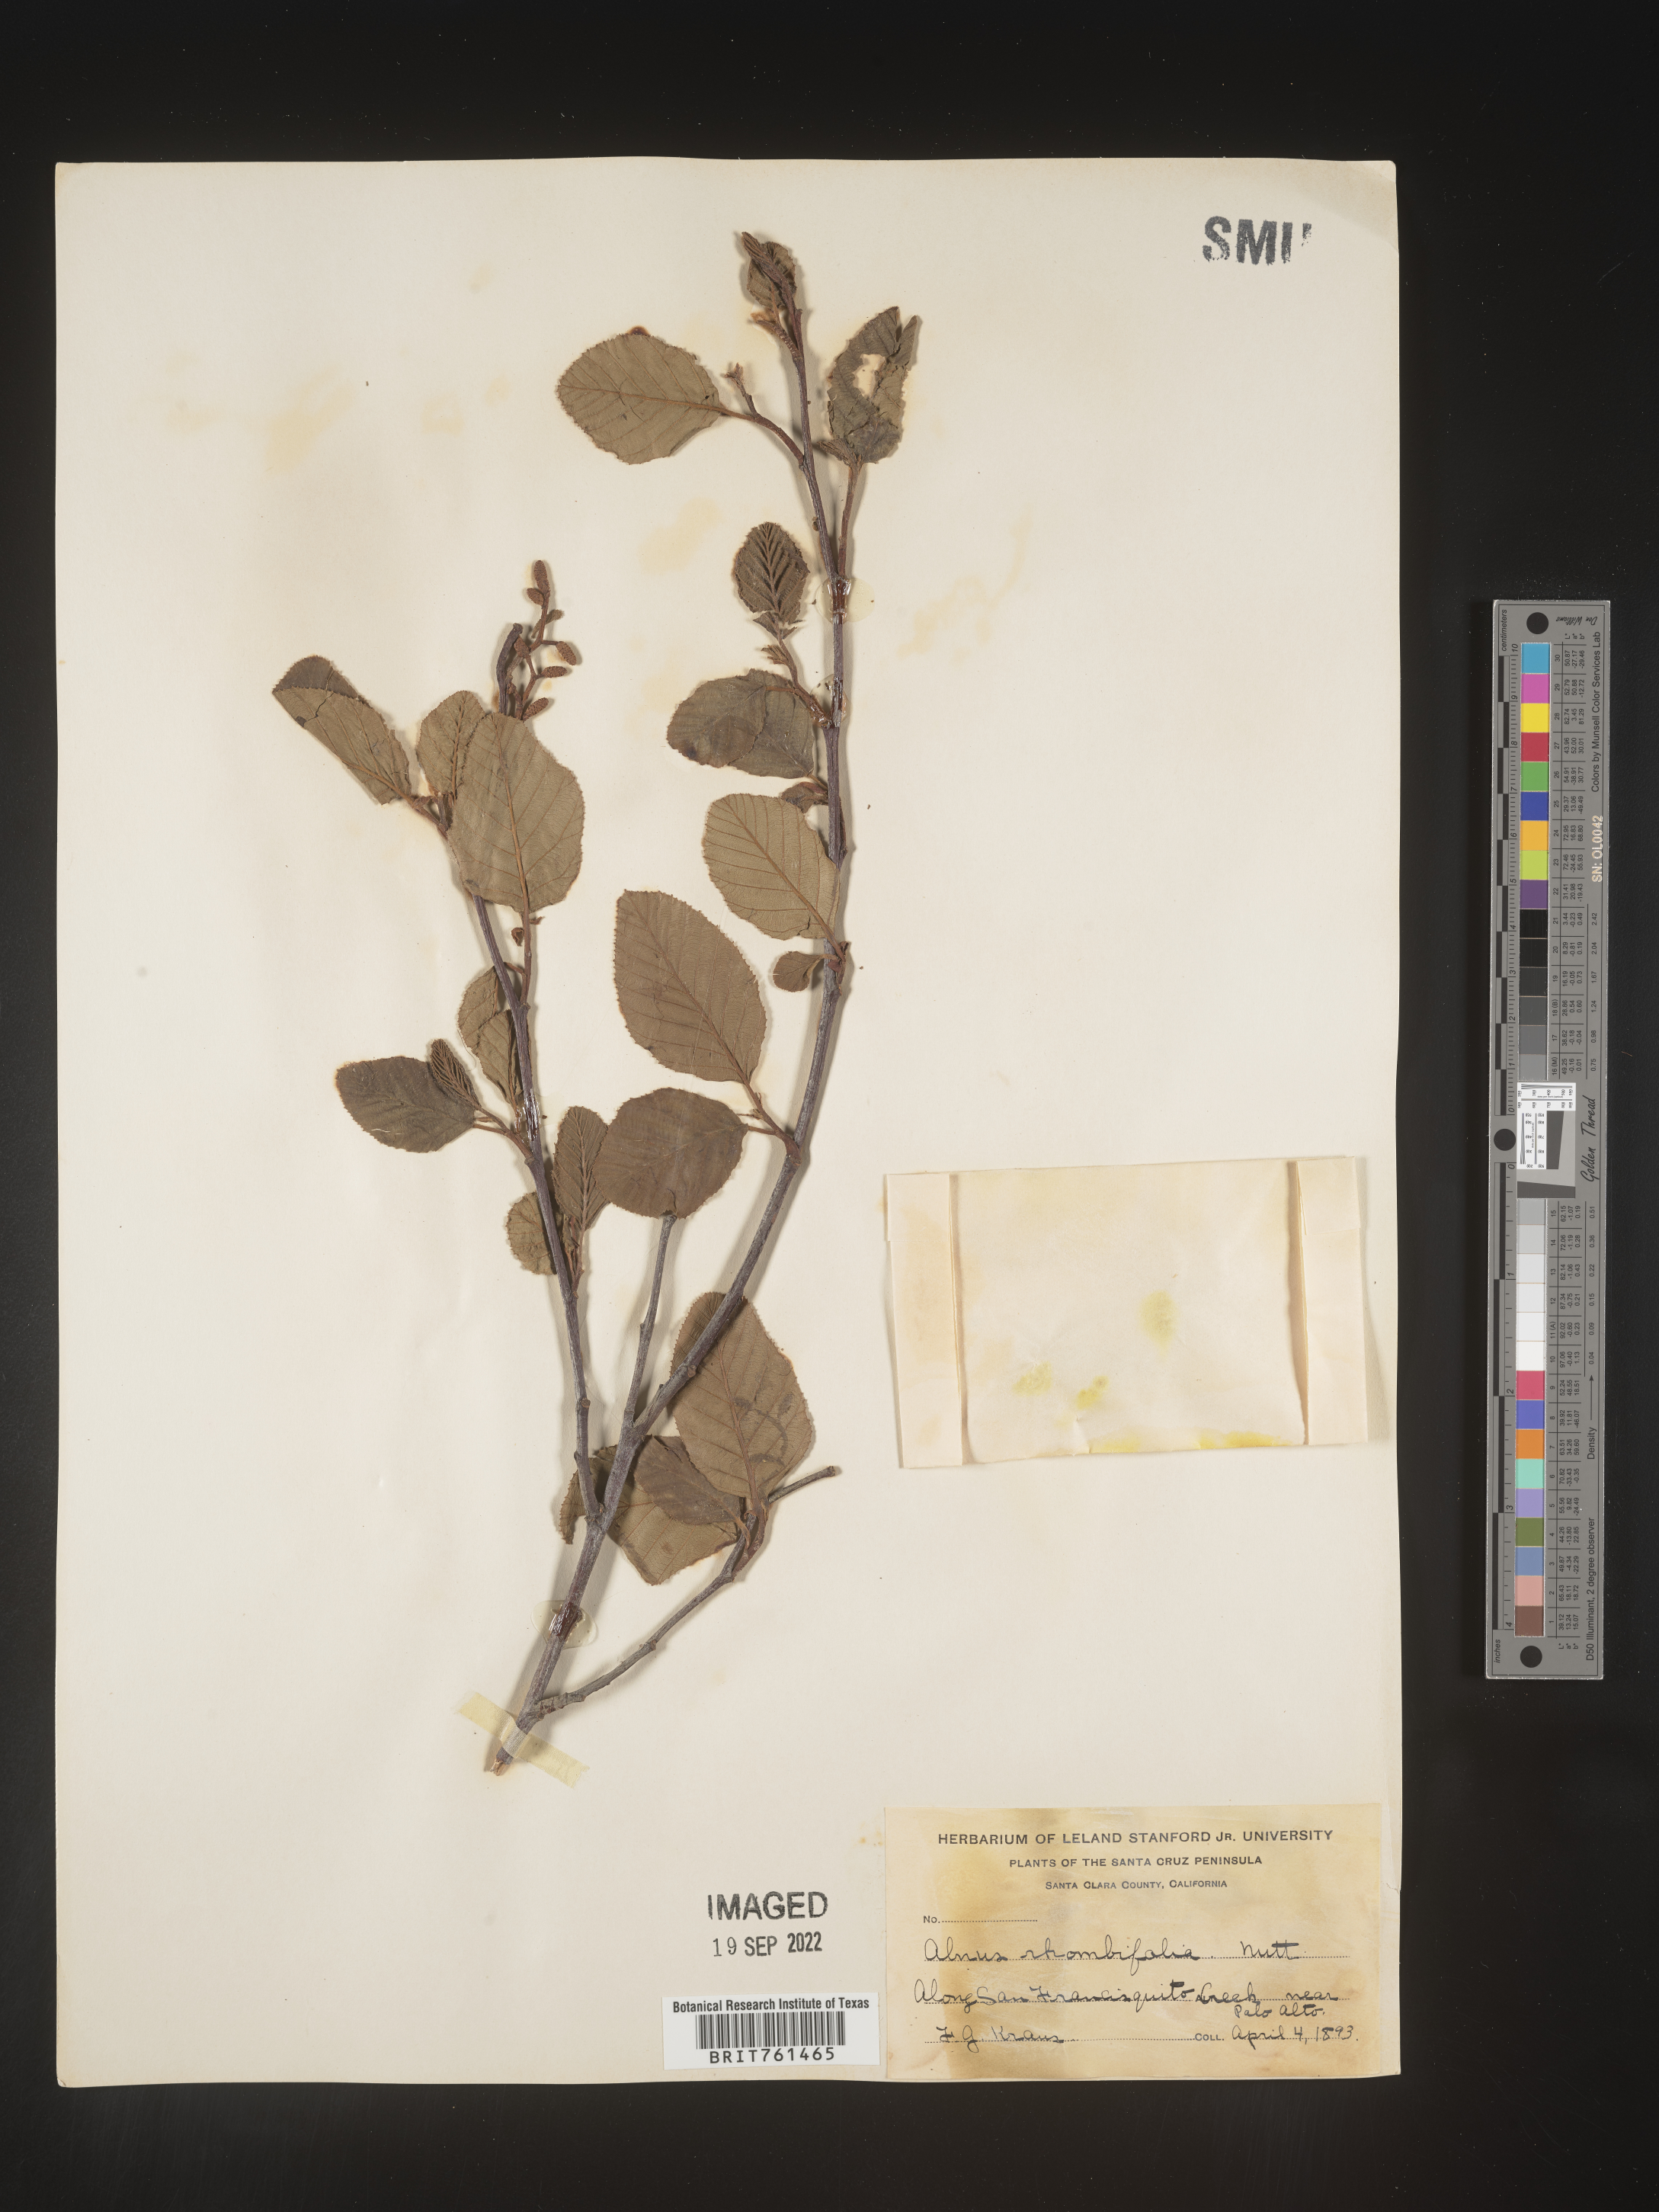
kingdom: Plantae
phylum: Tracheophyta
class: Magnoliopsida
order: Fagales
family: Betulaceae
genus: Alnus
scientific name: Alnus rhombifolia
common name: California alder
